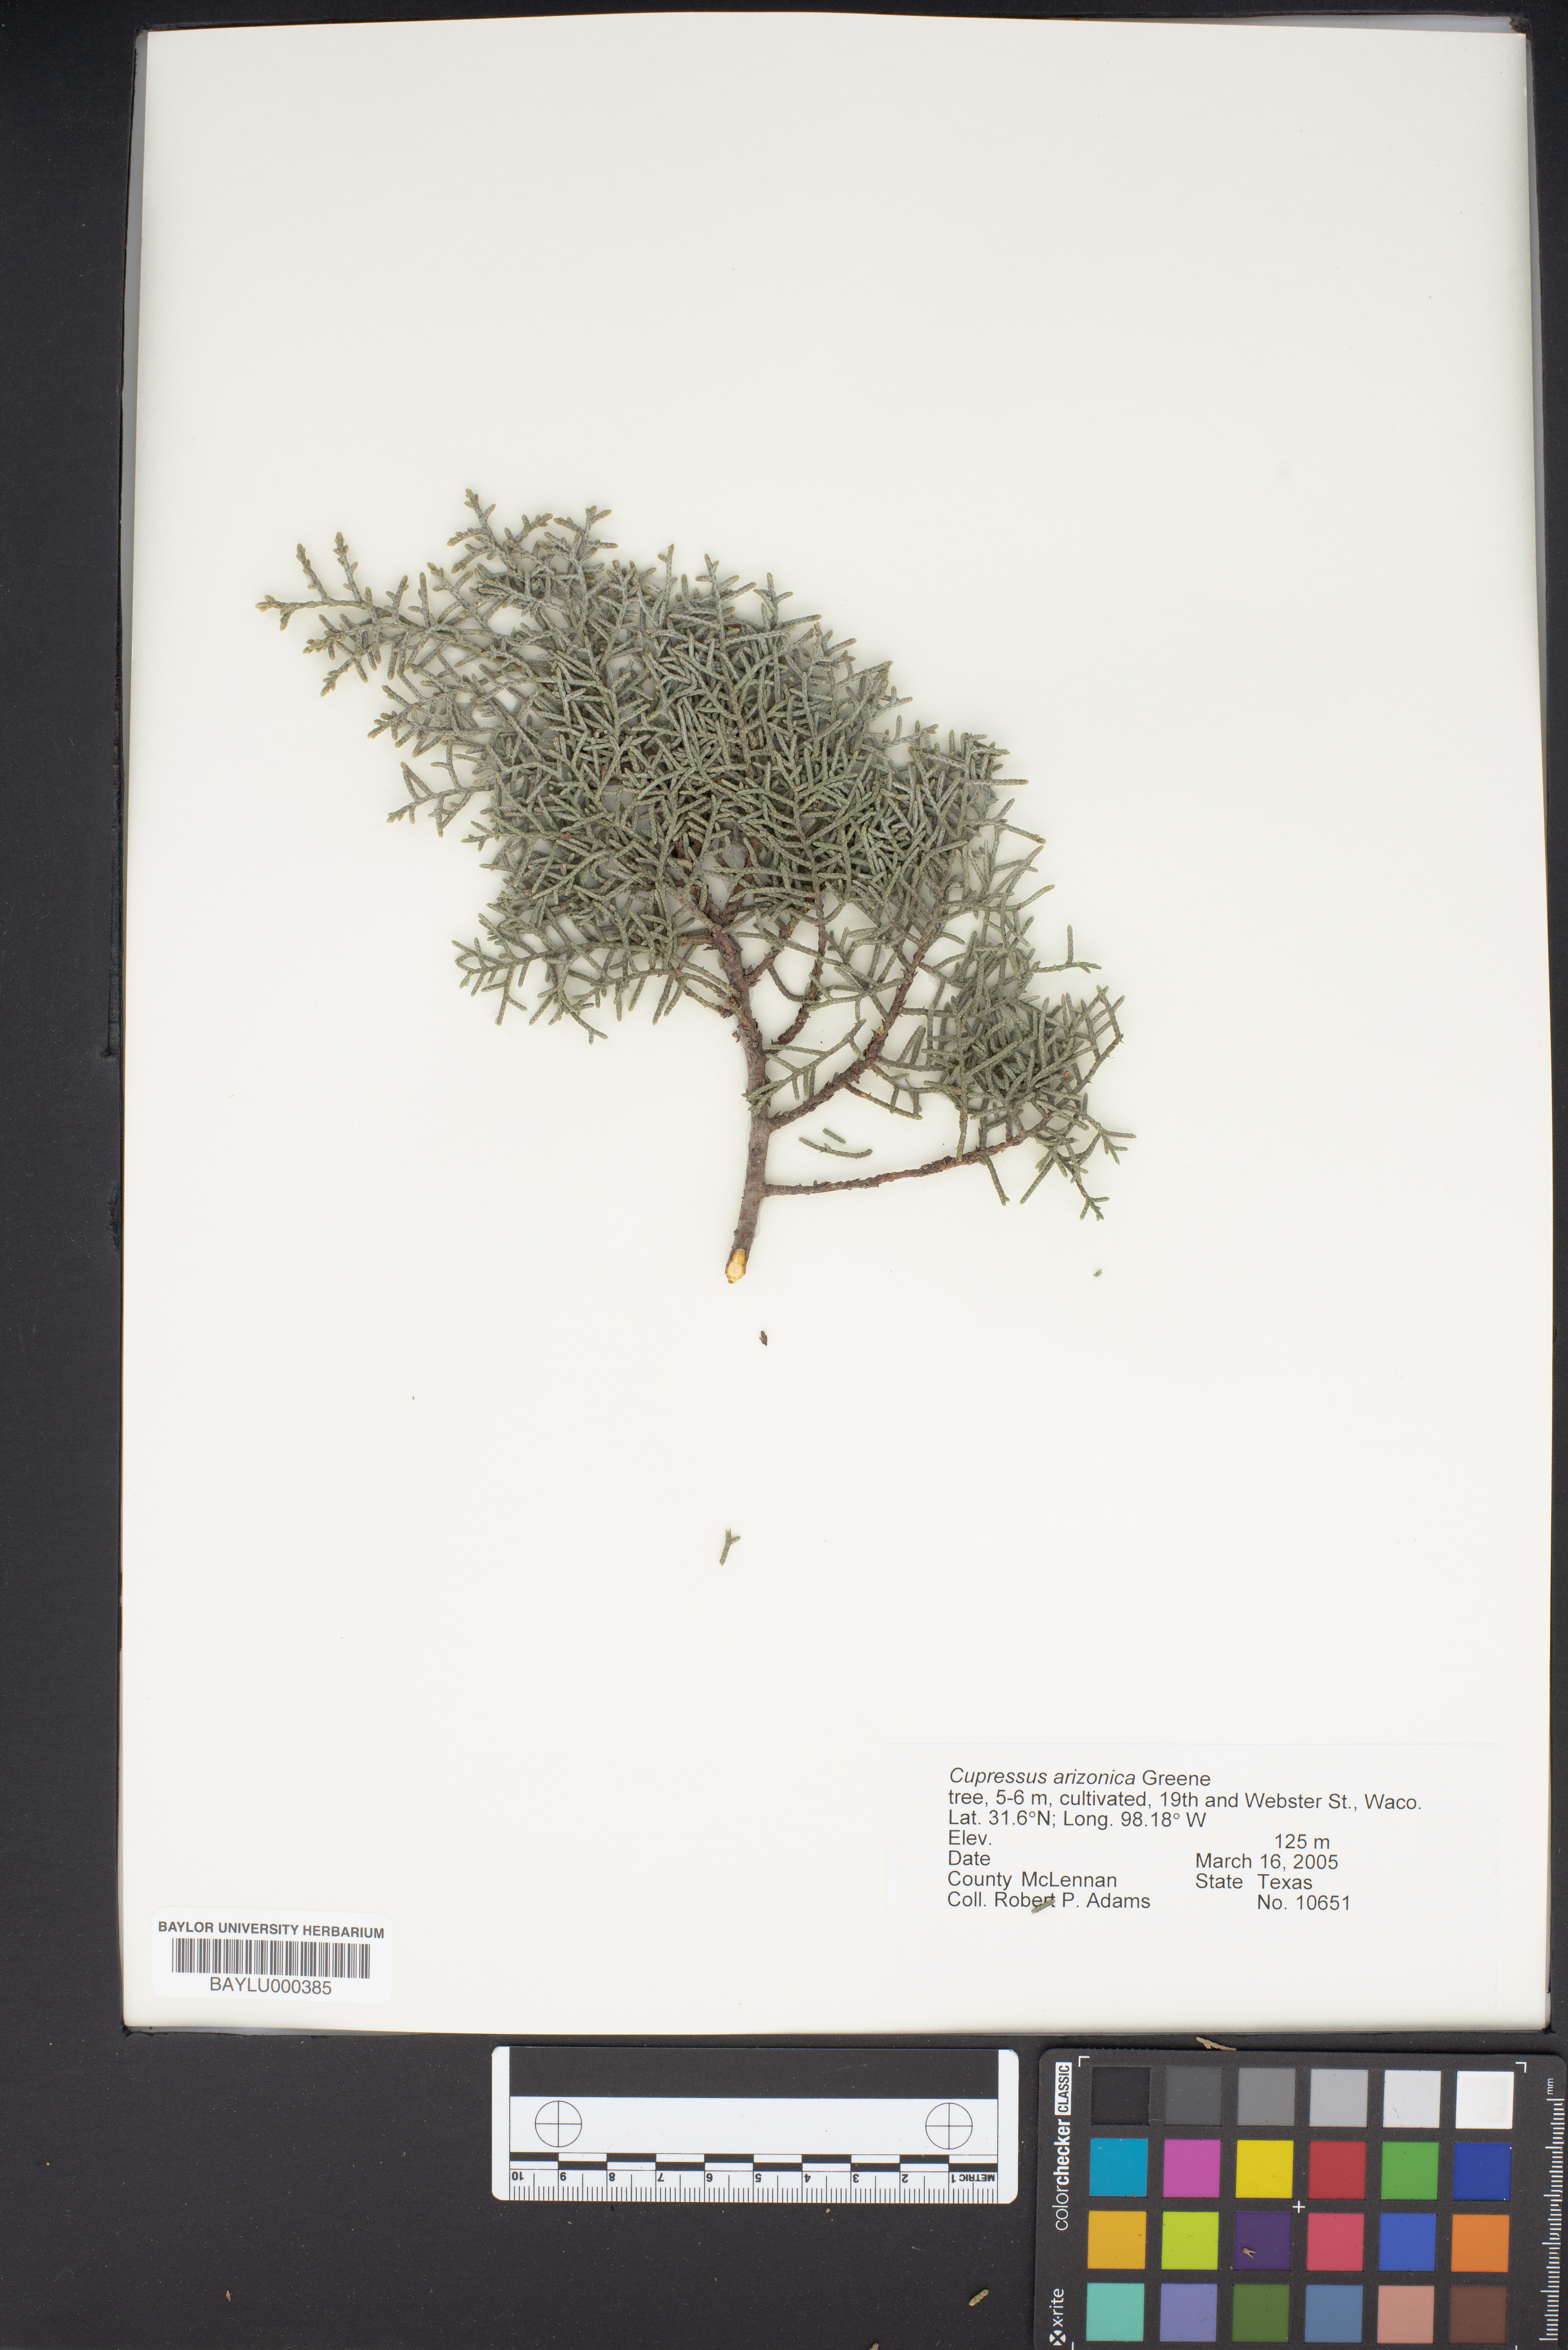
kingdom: Plantae
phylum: Tracheophyta
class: Pinopsida
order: Pinales
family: Cupressaceae
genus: Cupressus
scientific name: Cupressus arizonica
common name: Arizona cypress
